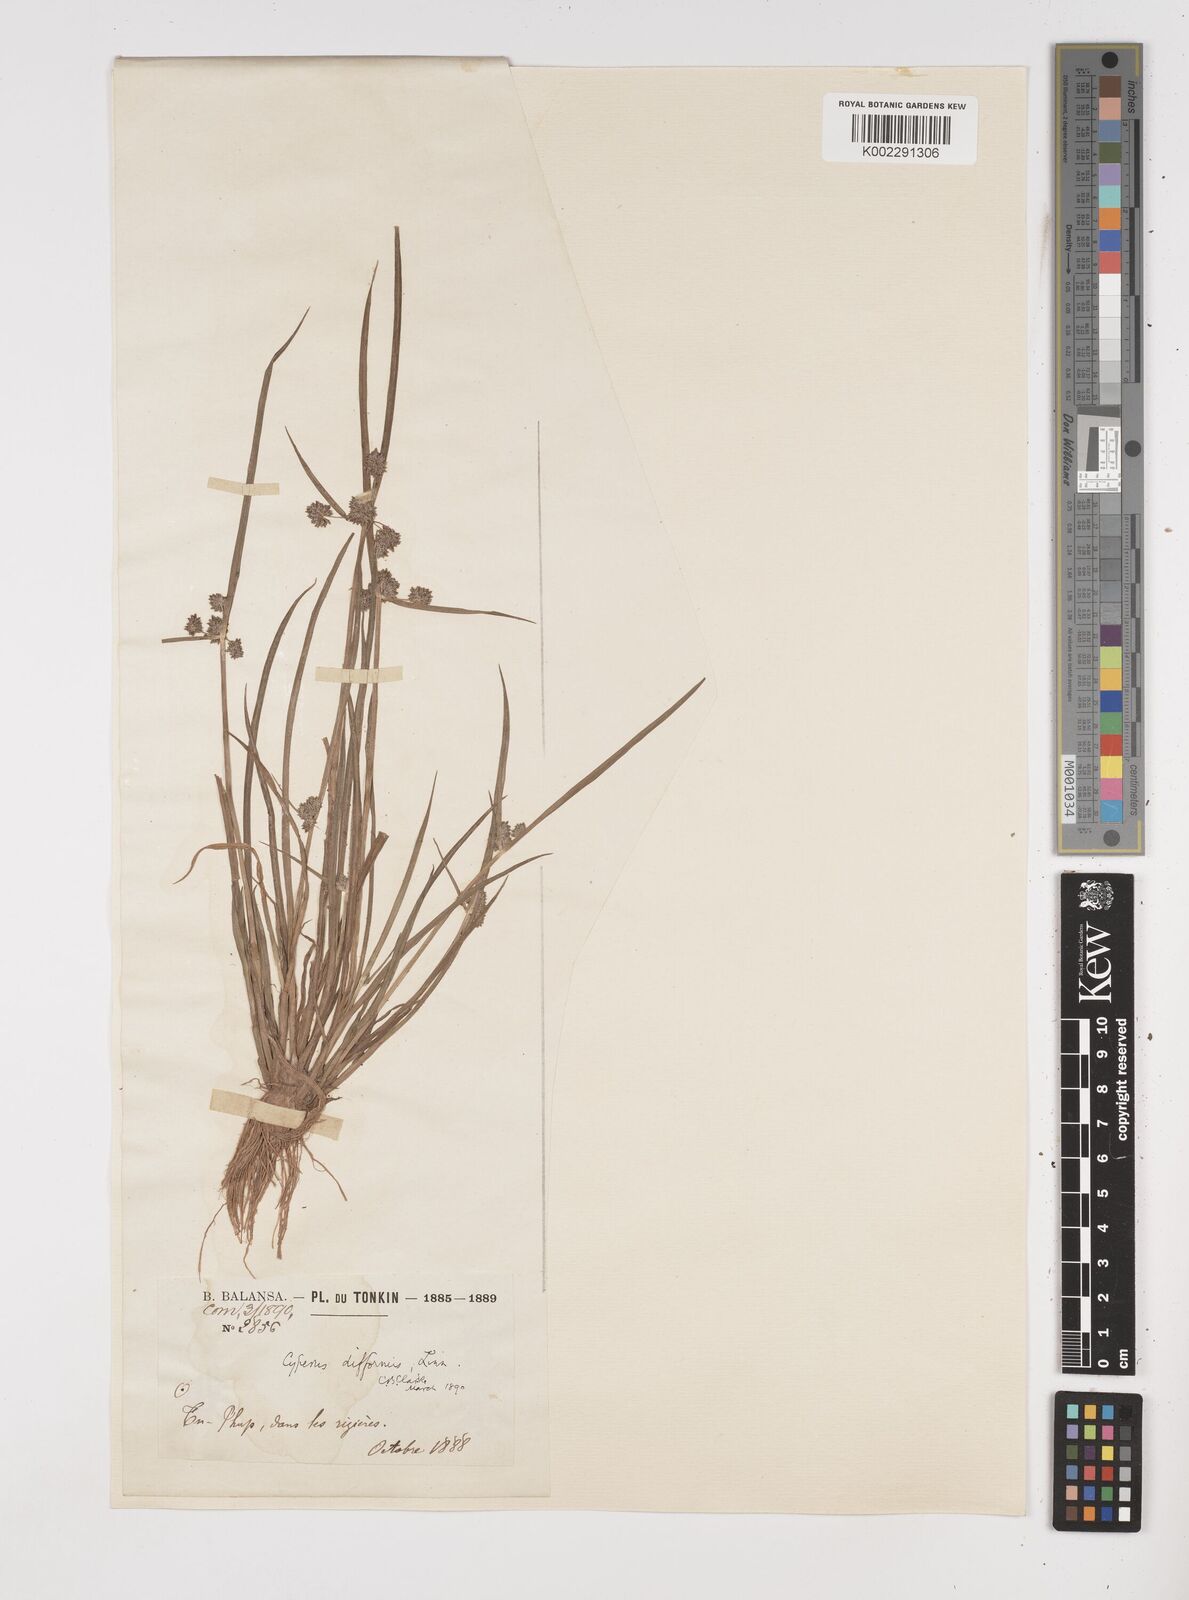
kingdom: Plantae
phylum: Tracheophyta
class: Liliopsida
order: Poales
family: Cyperaceae
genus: Cyperus
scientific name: Cyperus difformis
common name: Variable flatsedge
